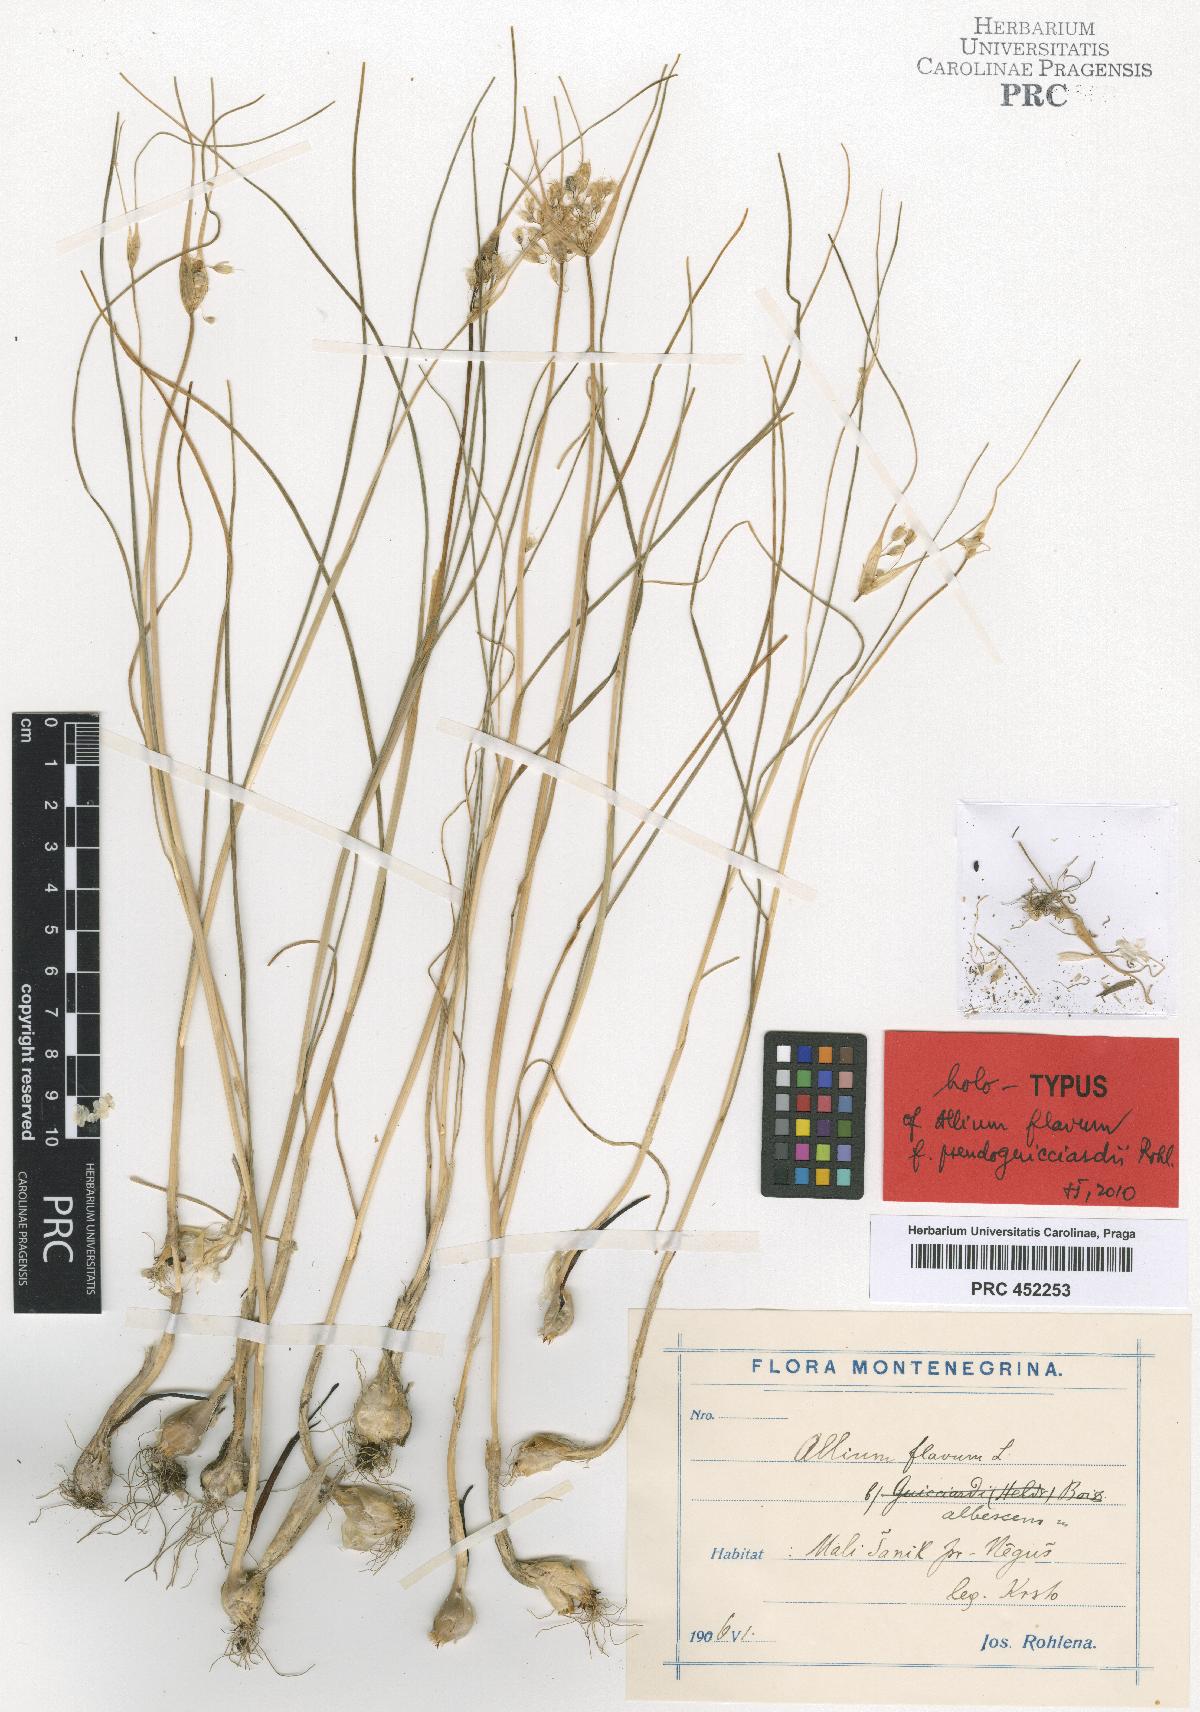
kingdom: Plantae
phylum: Tracheophyta
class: Liliopsida
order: Asparagales
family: Amaryllidaceae
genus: Allium
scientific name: Allium flavum
